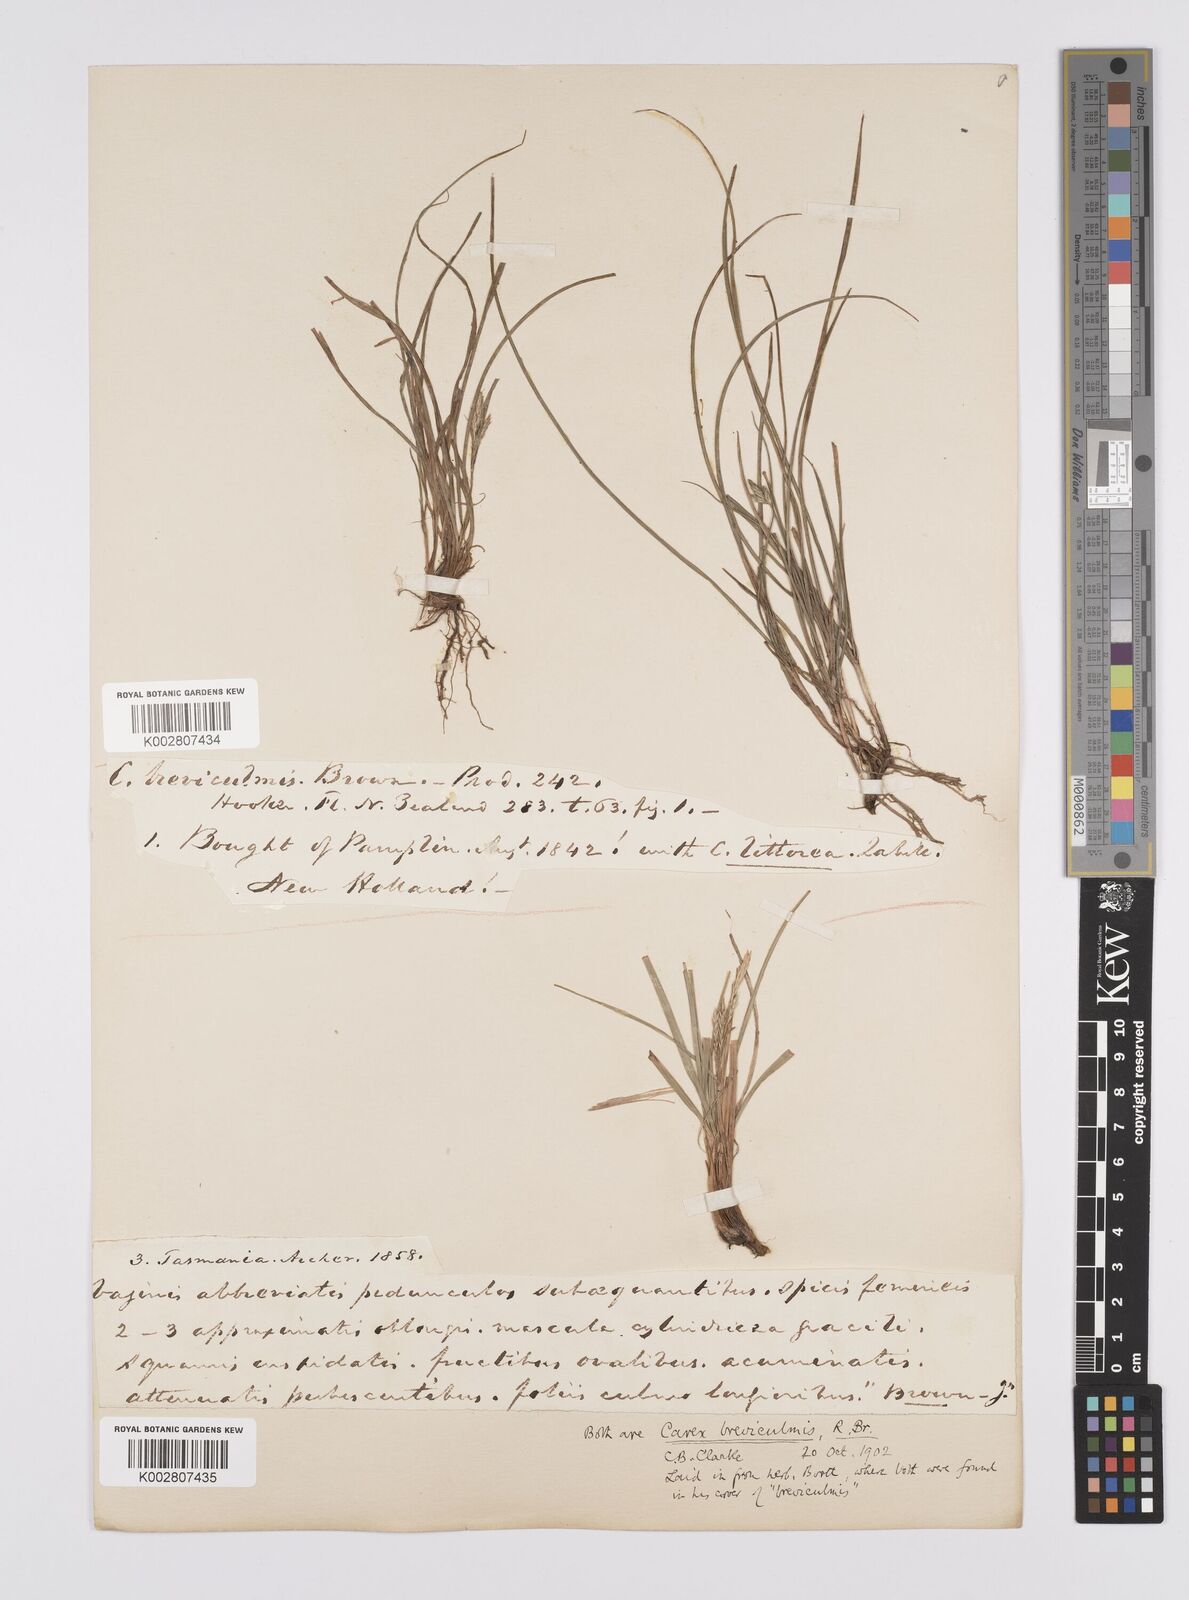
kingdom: Plantae
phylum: Tracheophyta
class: Liliopsida
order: Poales
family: Cyperaceae
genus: Carex
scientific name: Carex breviculmis
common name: Asian shortstem sedge
